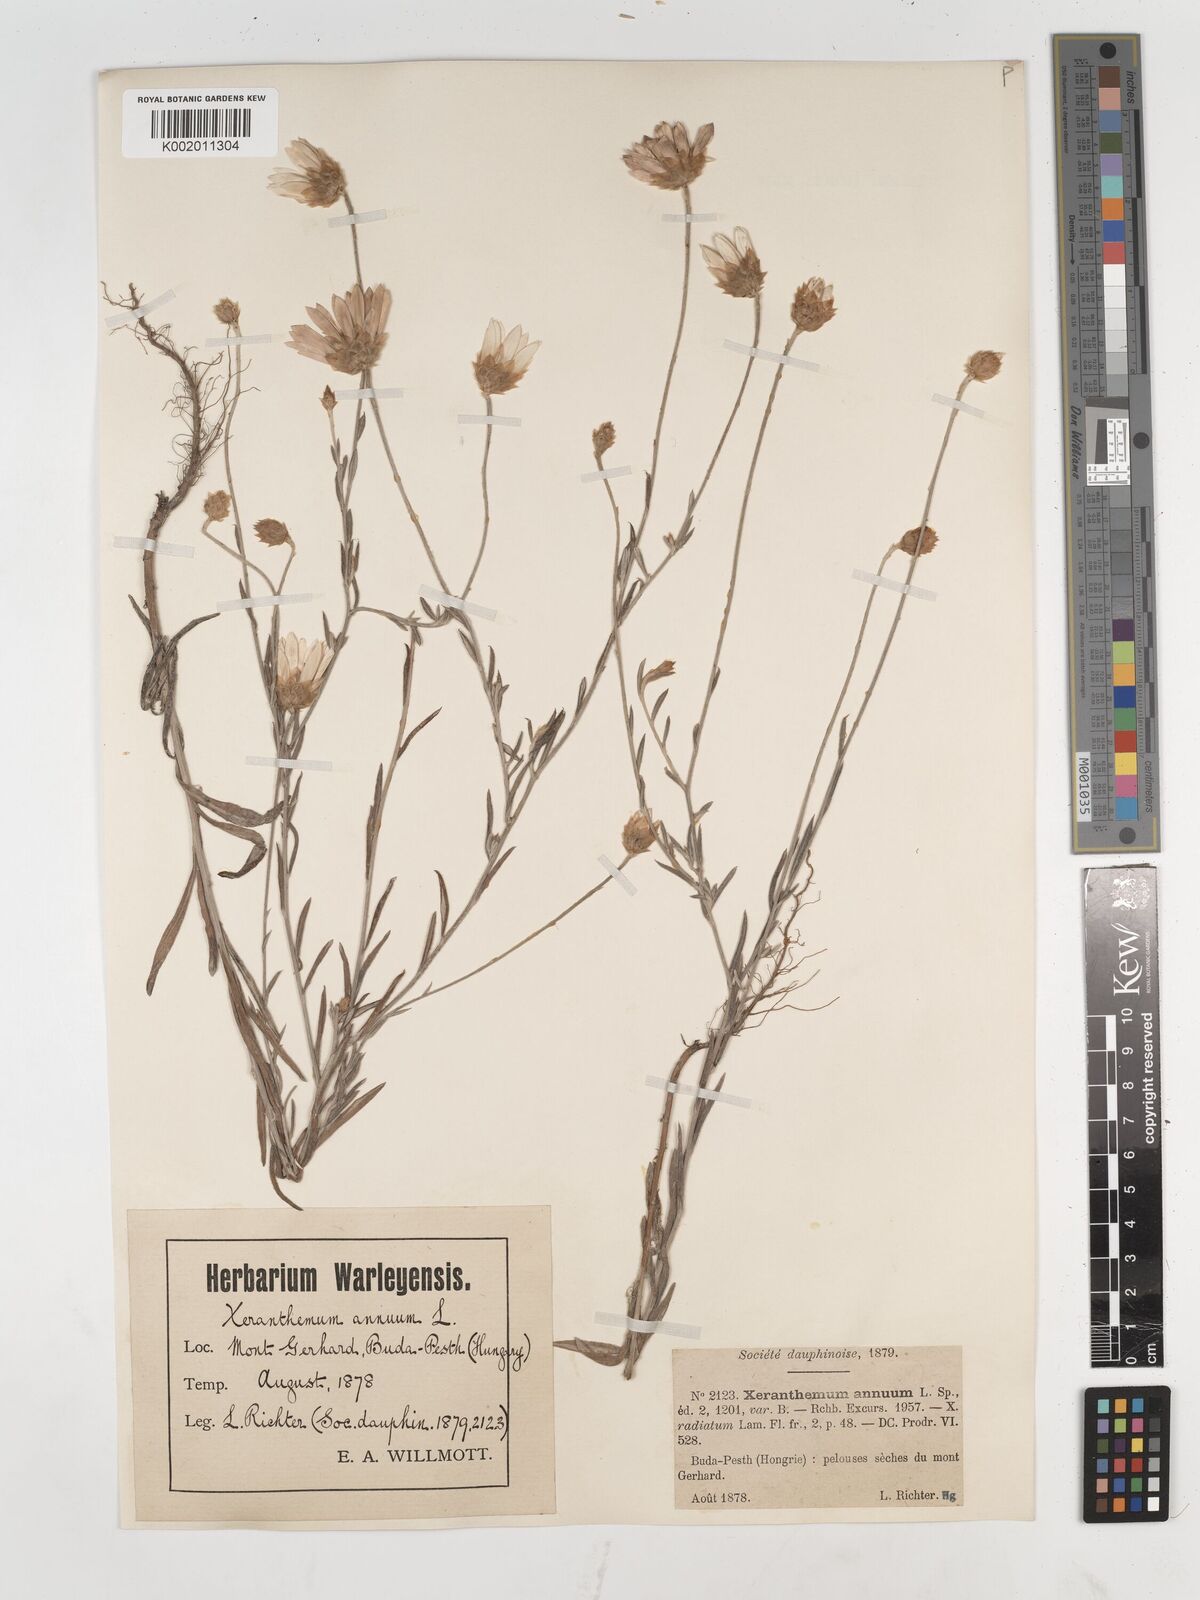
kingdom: Plantae
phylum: Tracheophyta
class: Magnoliopsida
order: Asterales
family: Asteraceae
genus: Xeranthemum
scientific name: Xeranthemum annuum
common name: Immortelle
